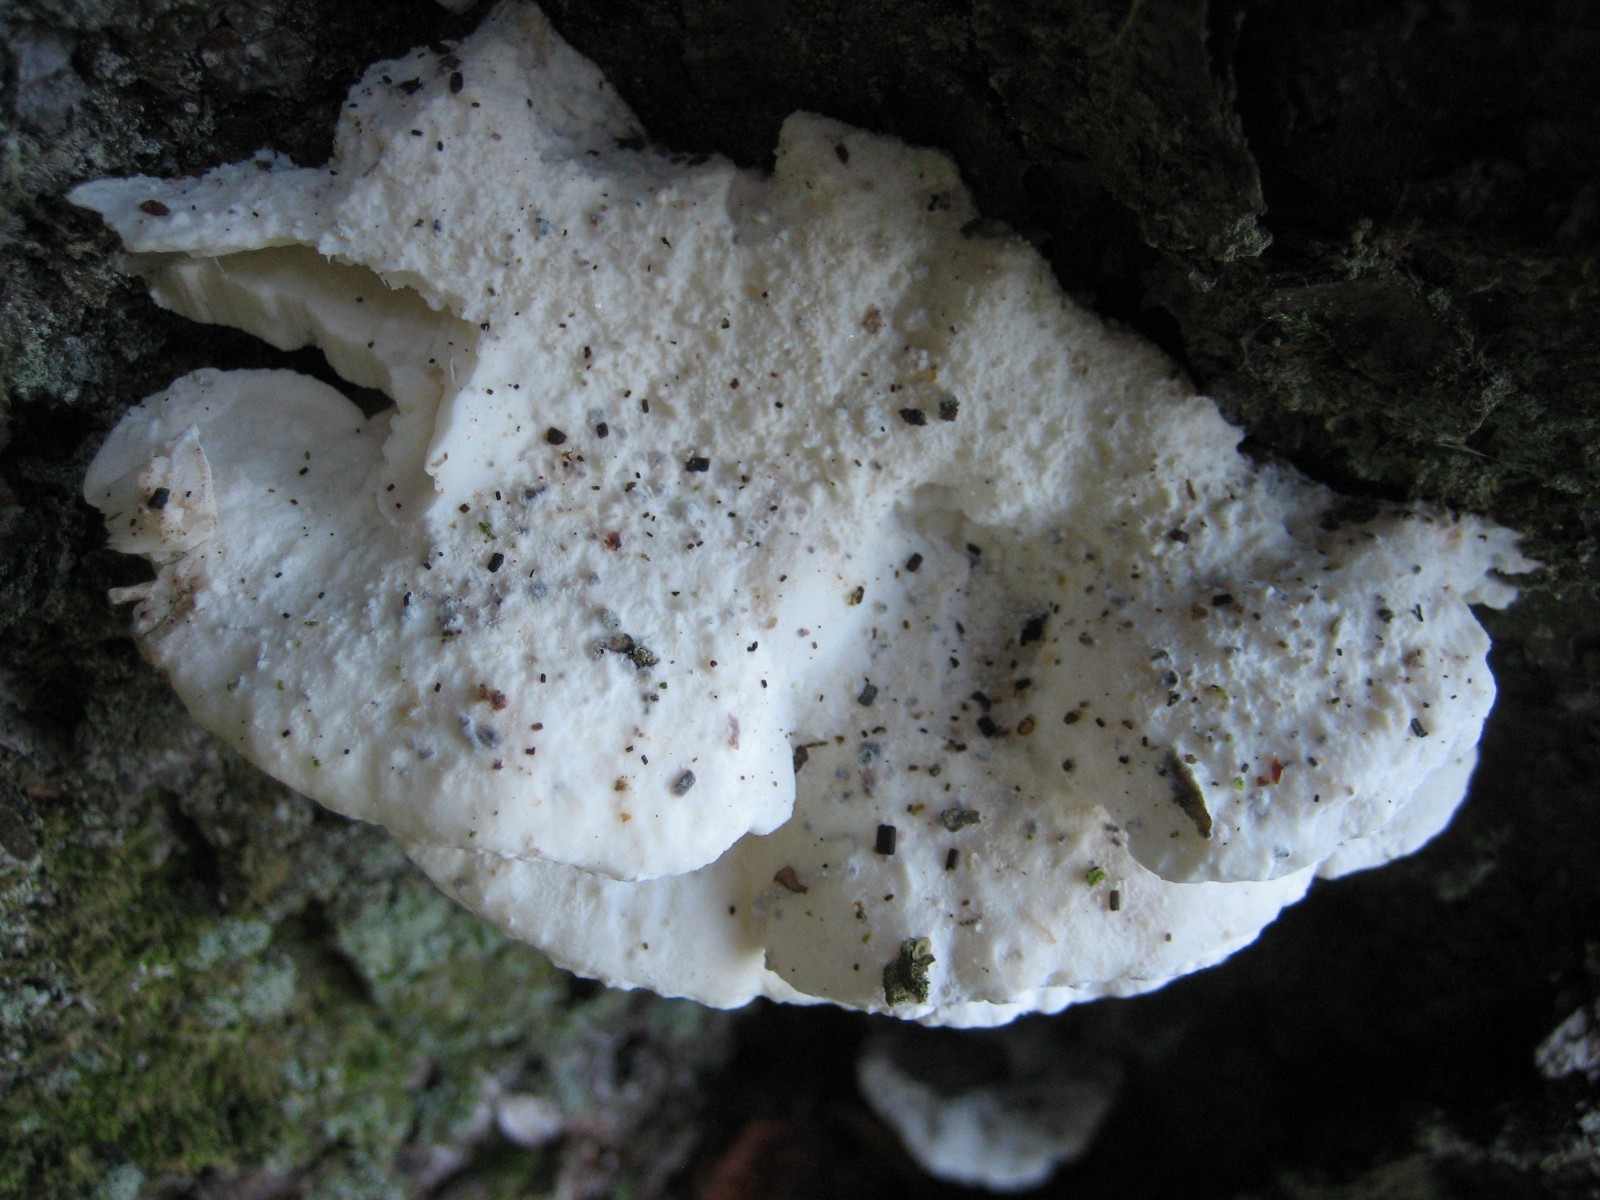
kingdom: Fungi
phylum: Basidiomycota
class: Agaricomycetes
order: Polyporales
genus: Amaropostia
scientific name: Amaropostia stiptica
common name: bitter kødporesvamp
